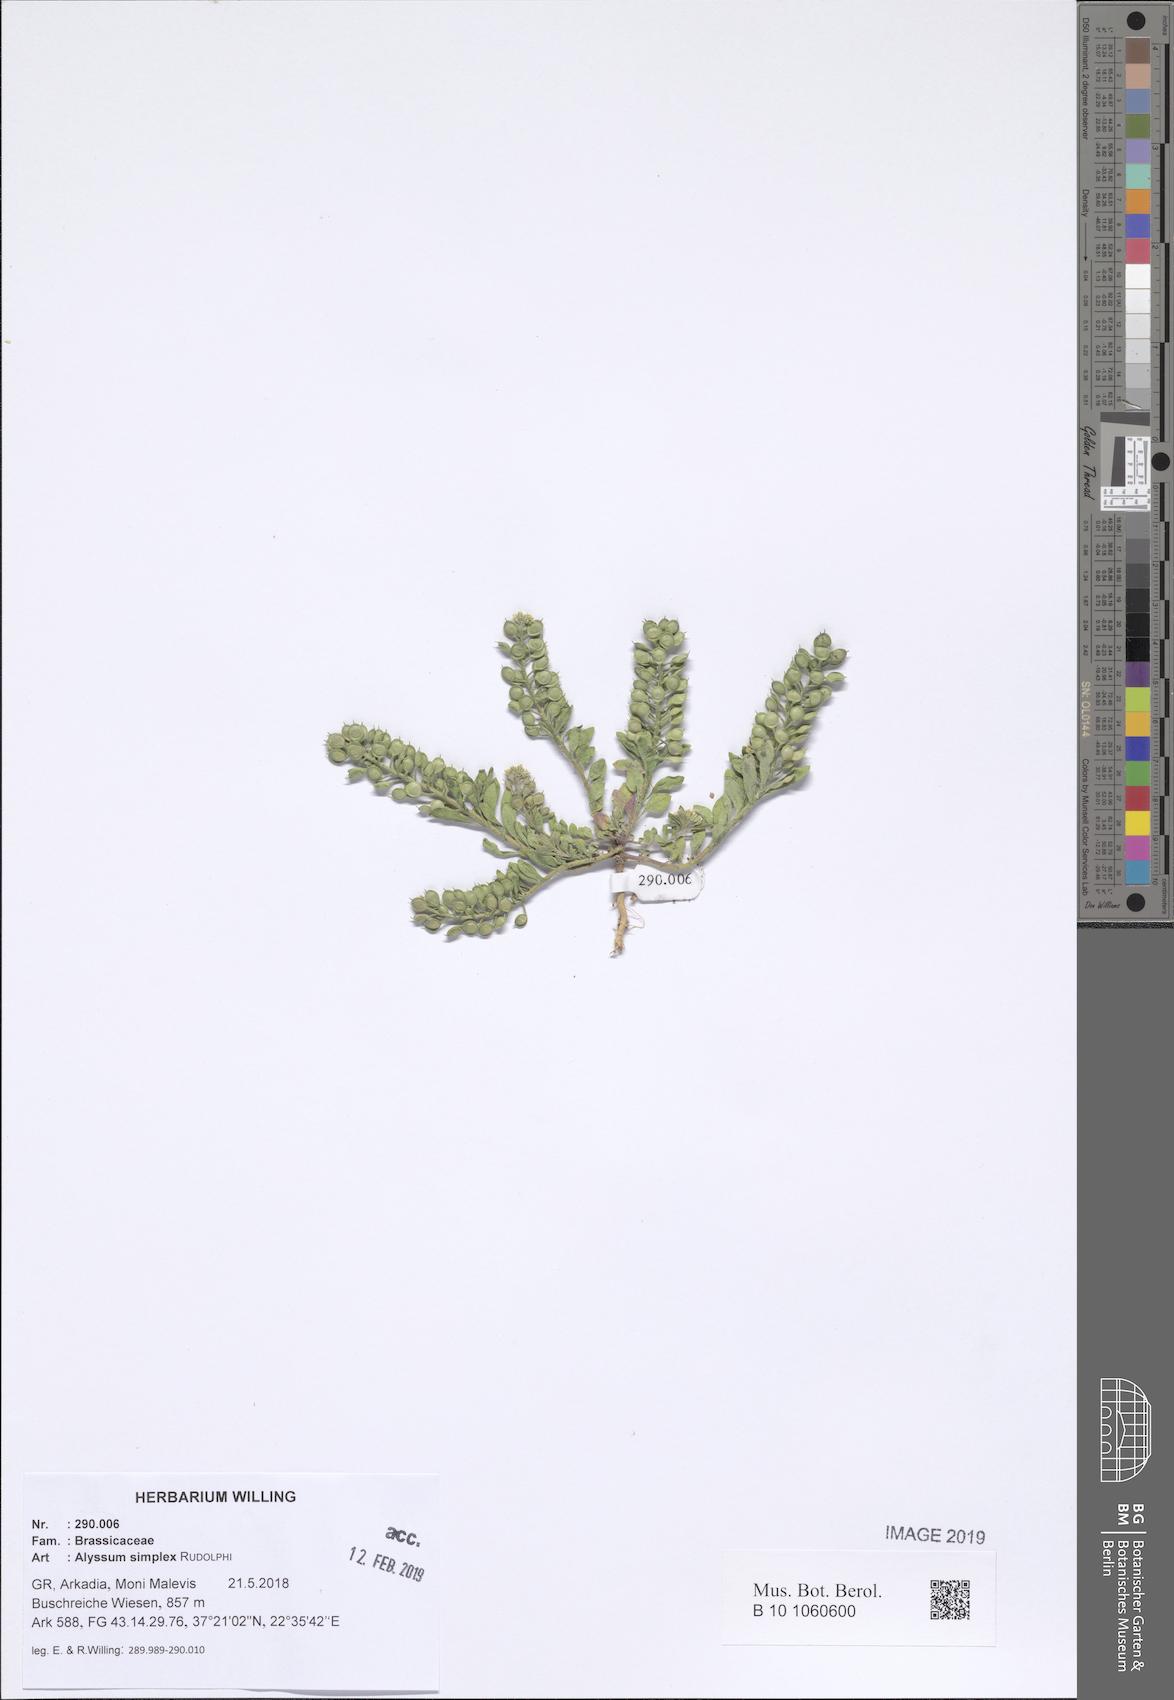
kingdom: Plantae
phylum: Tracheophyta
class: Magnoliopsida
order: Brassicales
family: Brassicaceae
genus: Alyssum
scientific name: Alyssum simplex
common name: Alyssum
